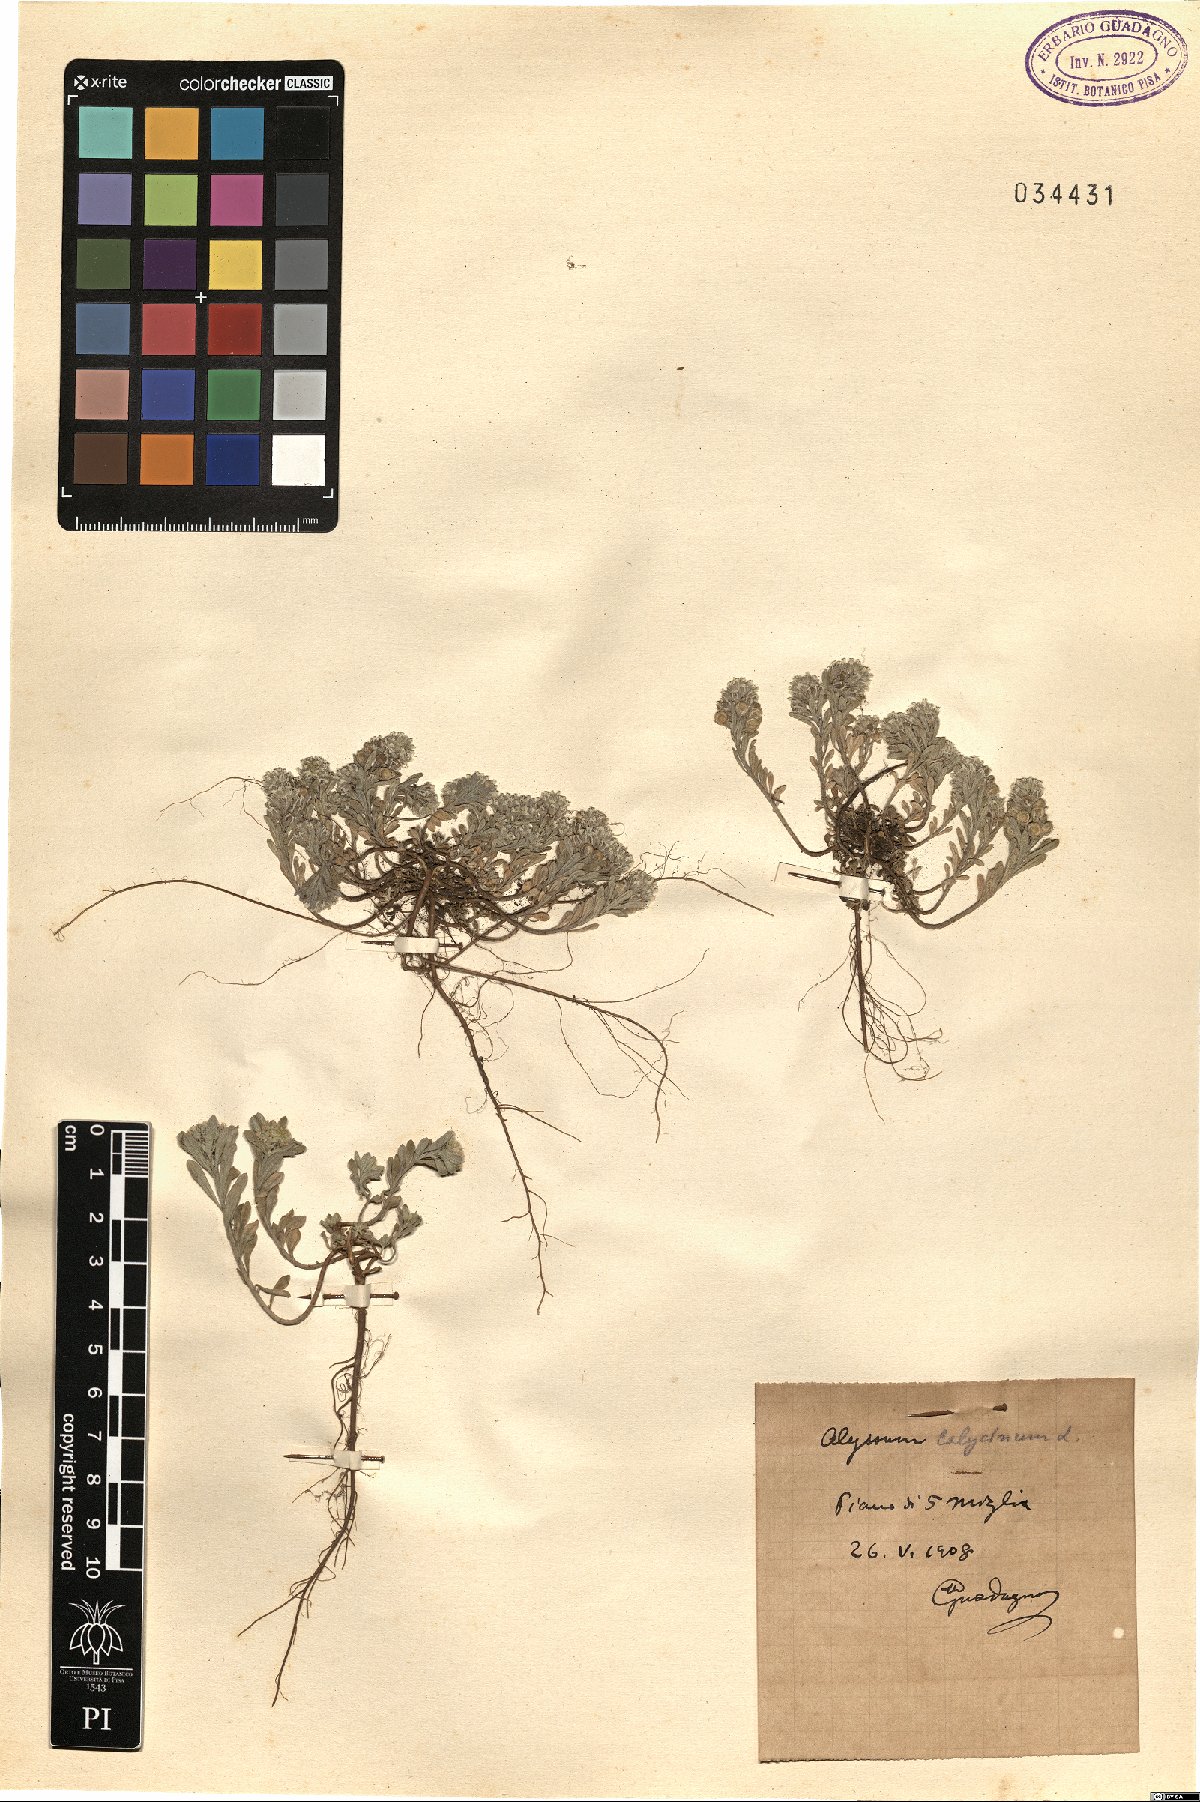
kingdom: Plantae
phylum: Tracheophyta
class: Magnoliopsida
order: Brassicales
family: Brassicaceae
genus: Alyssum
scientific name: Alyssum alyssoides
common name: Small alison
